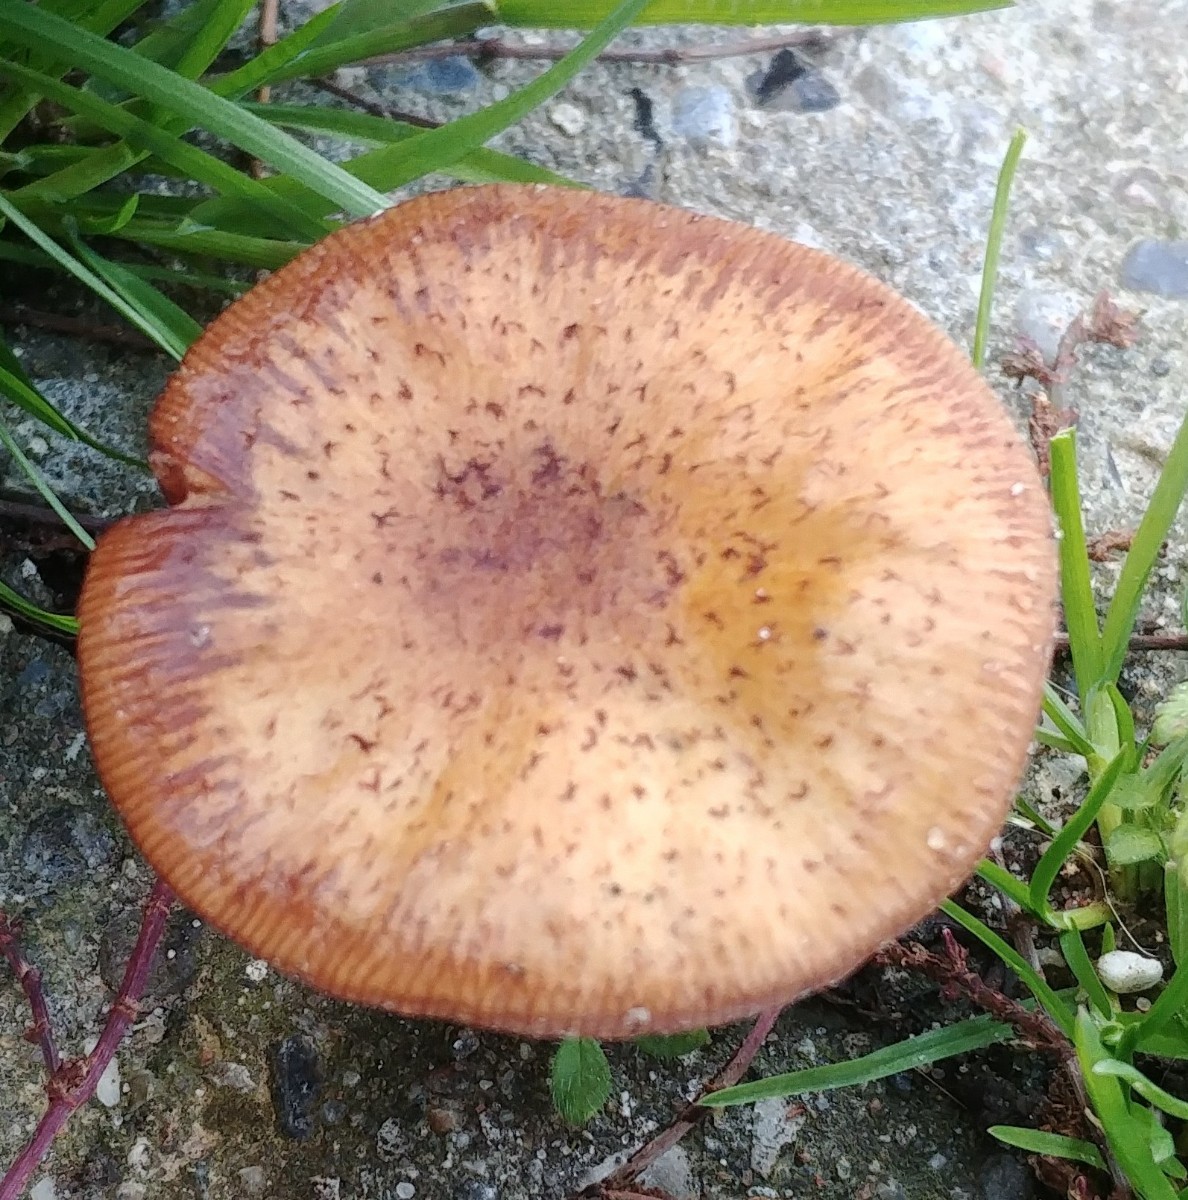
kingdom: Fungi
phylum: Basidiomycota
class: Agaricomycetes
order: Agaricales
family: Physalacriaceae
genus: Armillaria
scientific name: Armillaria
